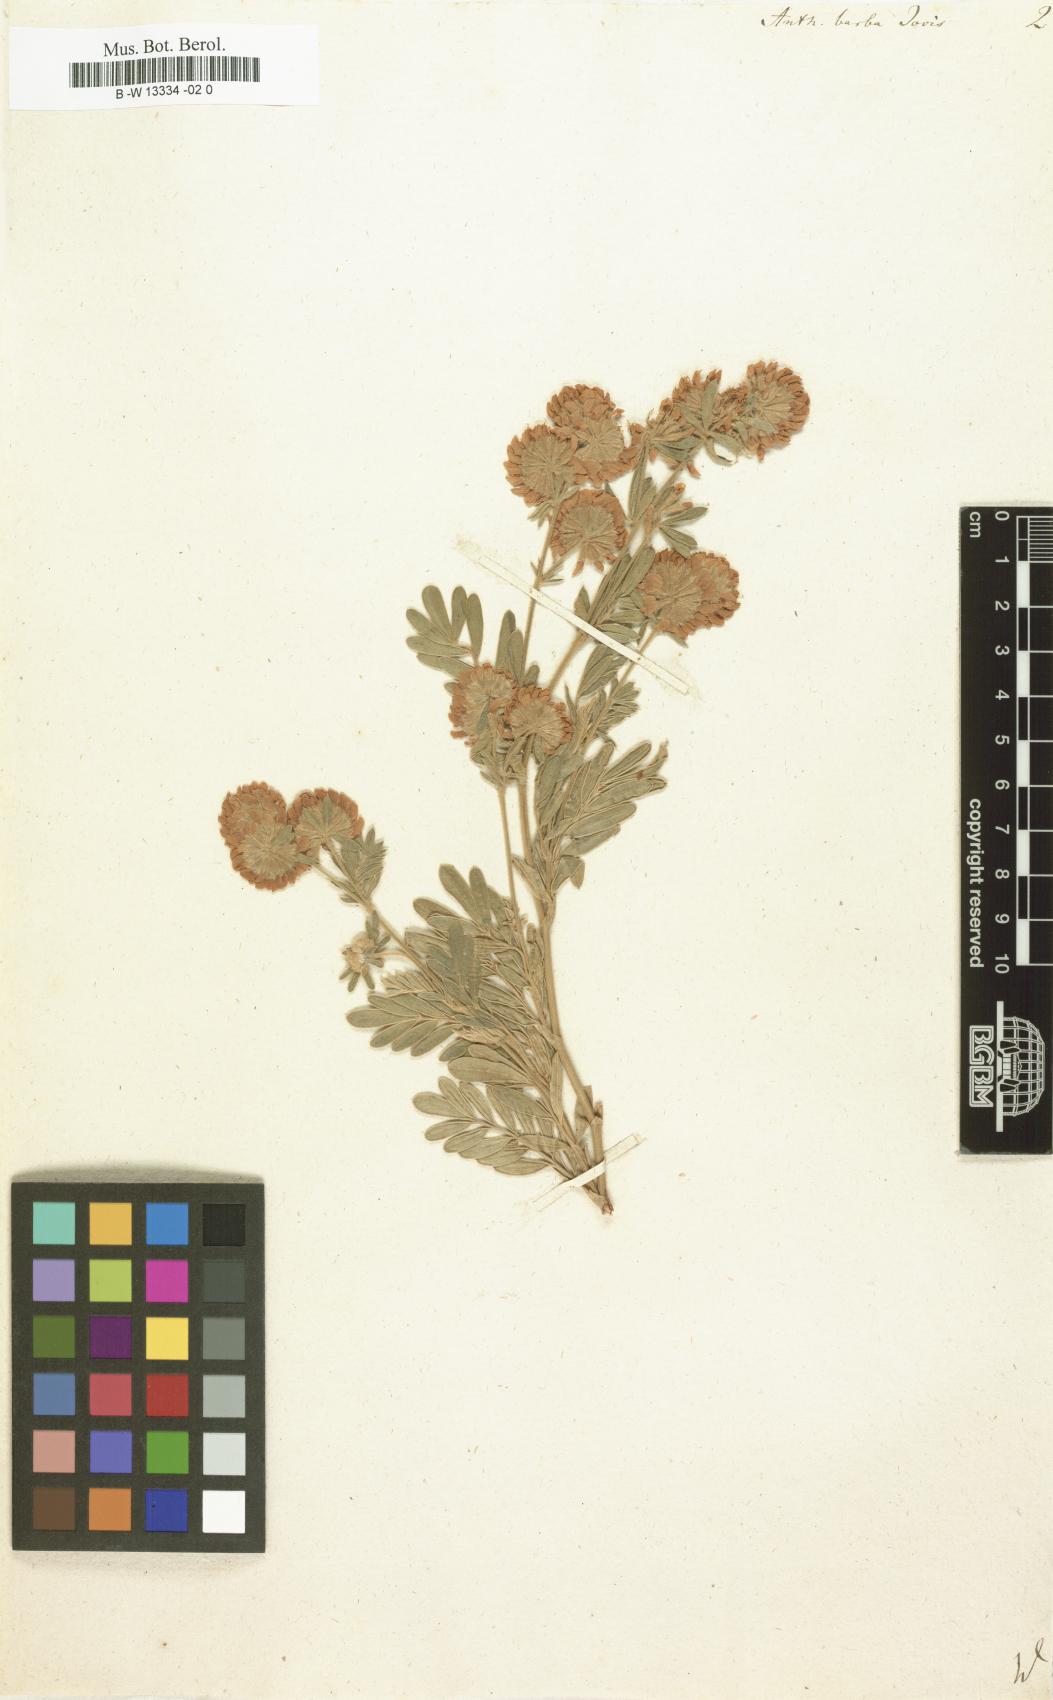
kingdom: Plantae
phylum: Tracheophyta
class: Magnoliopsida
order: Fabales
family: Fabaceae
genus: Anthyllis
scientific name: Anthyllis barba-jovis
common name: Jupiter's-beard
